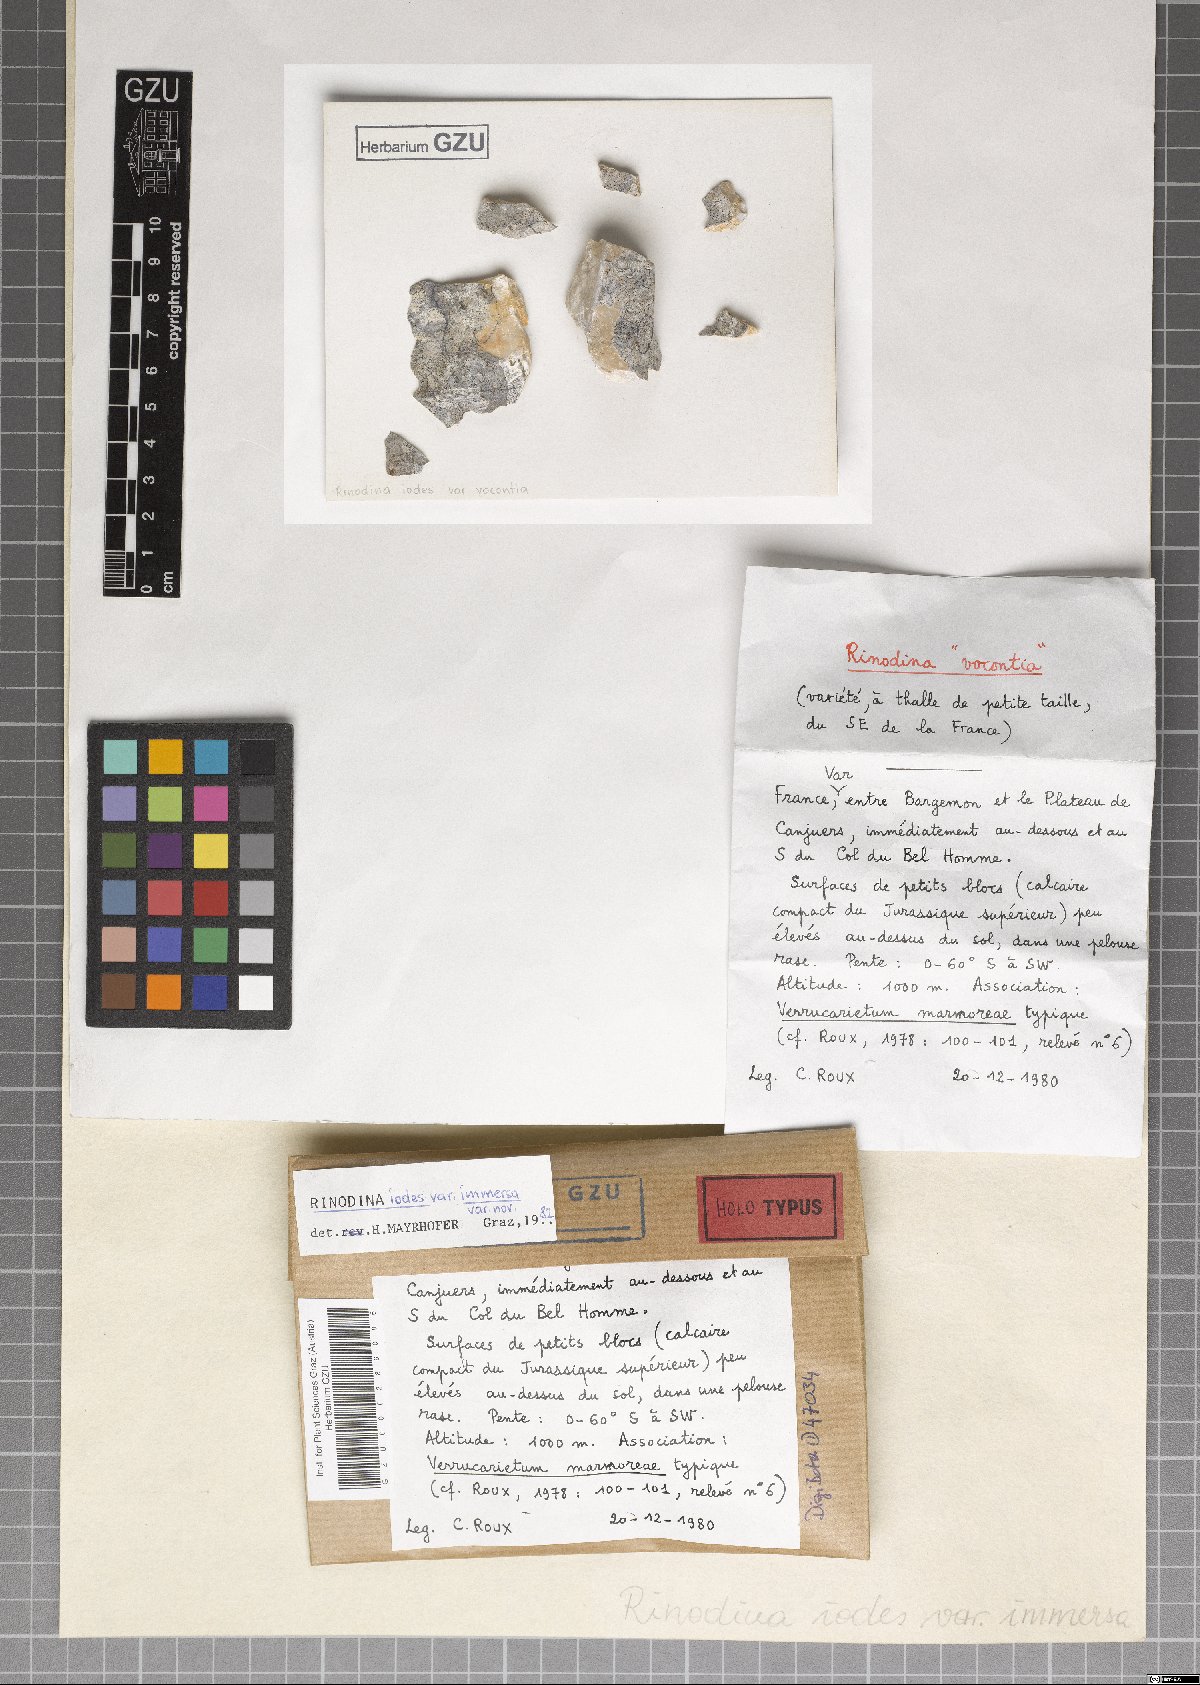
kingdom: Fungi
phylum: Ascomycota
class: Lecanoromycetes
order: Caliciales
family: Physciaceae
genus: Kudratovia
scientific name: Kudratovia luridata
